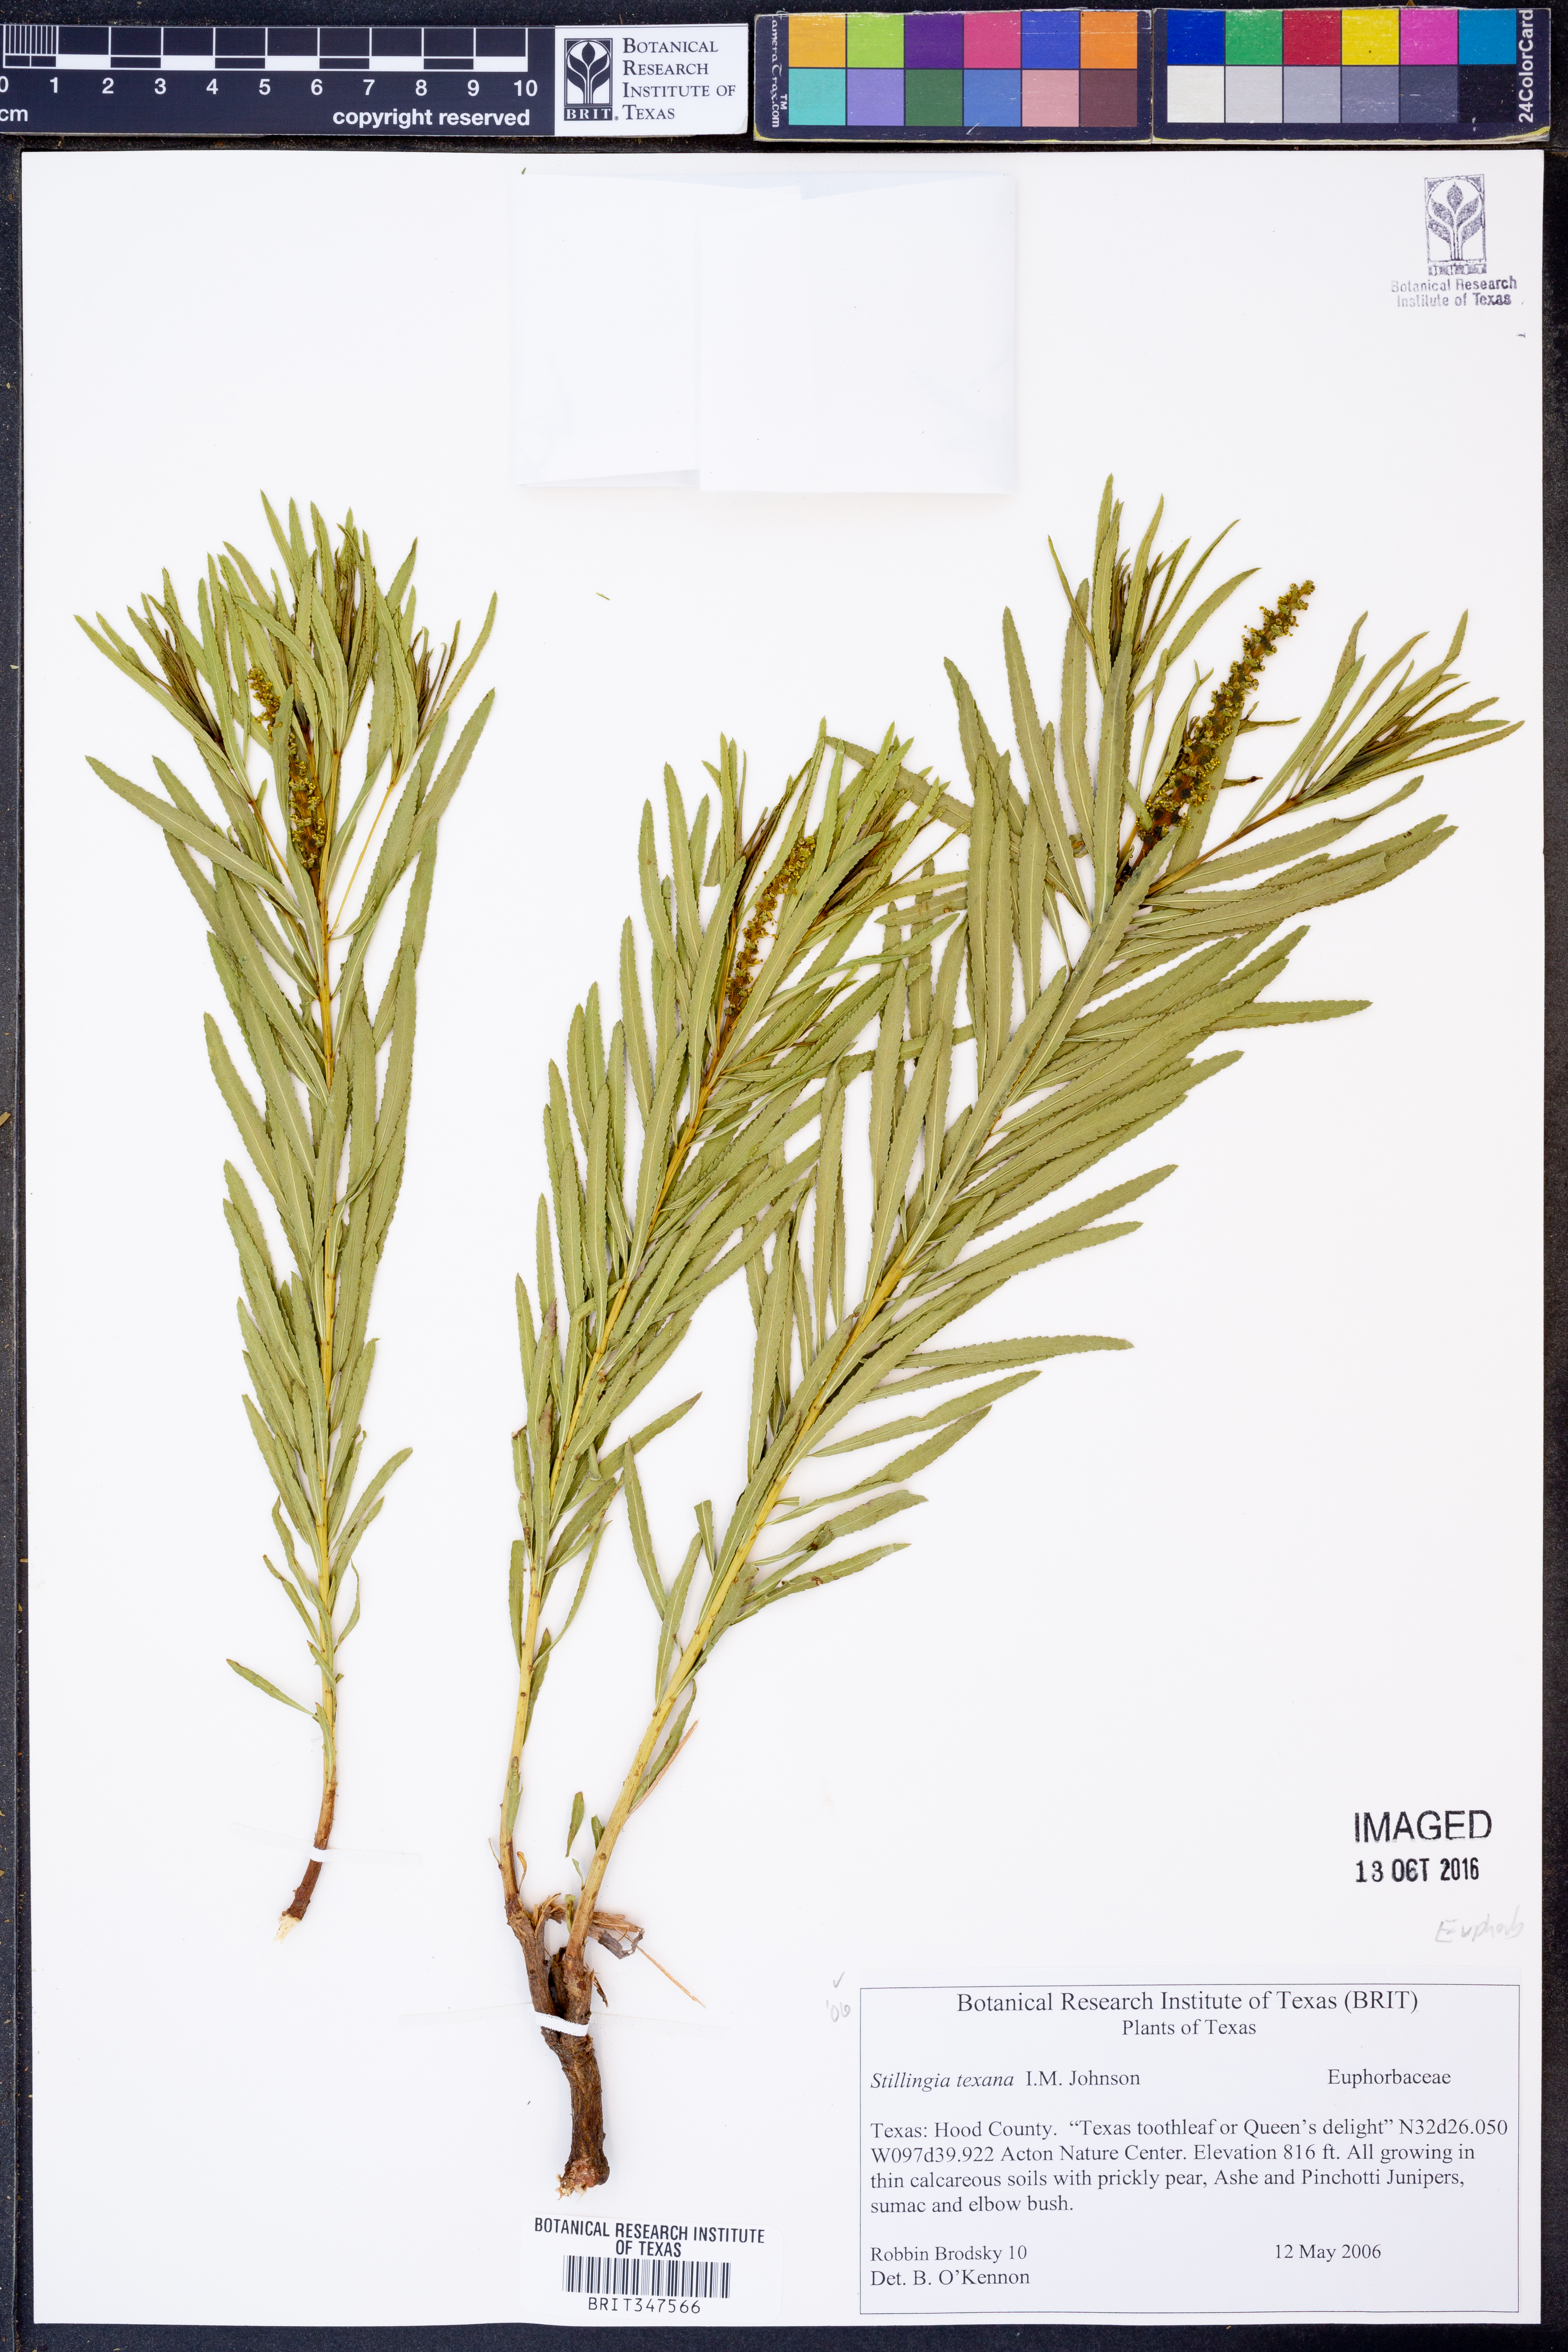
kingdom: Plantae
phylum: Tracheophyta
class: Magnoliopsida
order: Malpighiales
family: Euphorbiaceae
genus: Stillingia
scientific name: Stillingia texana
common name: Texas stillingia
